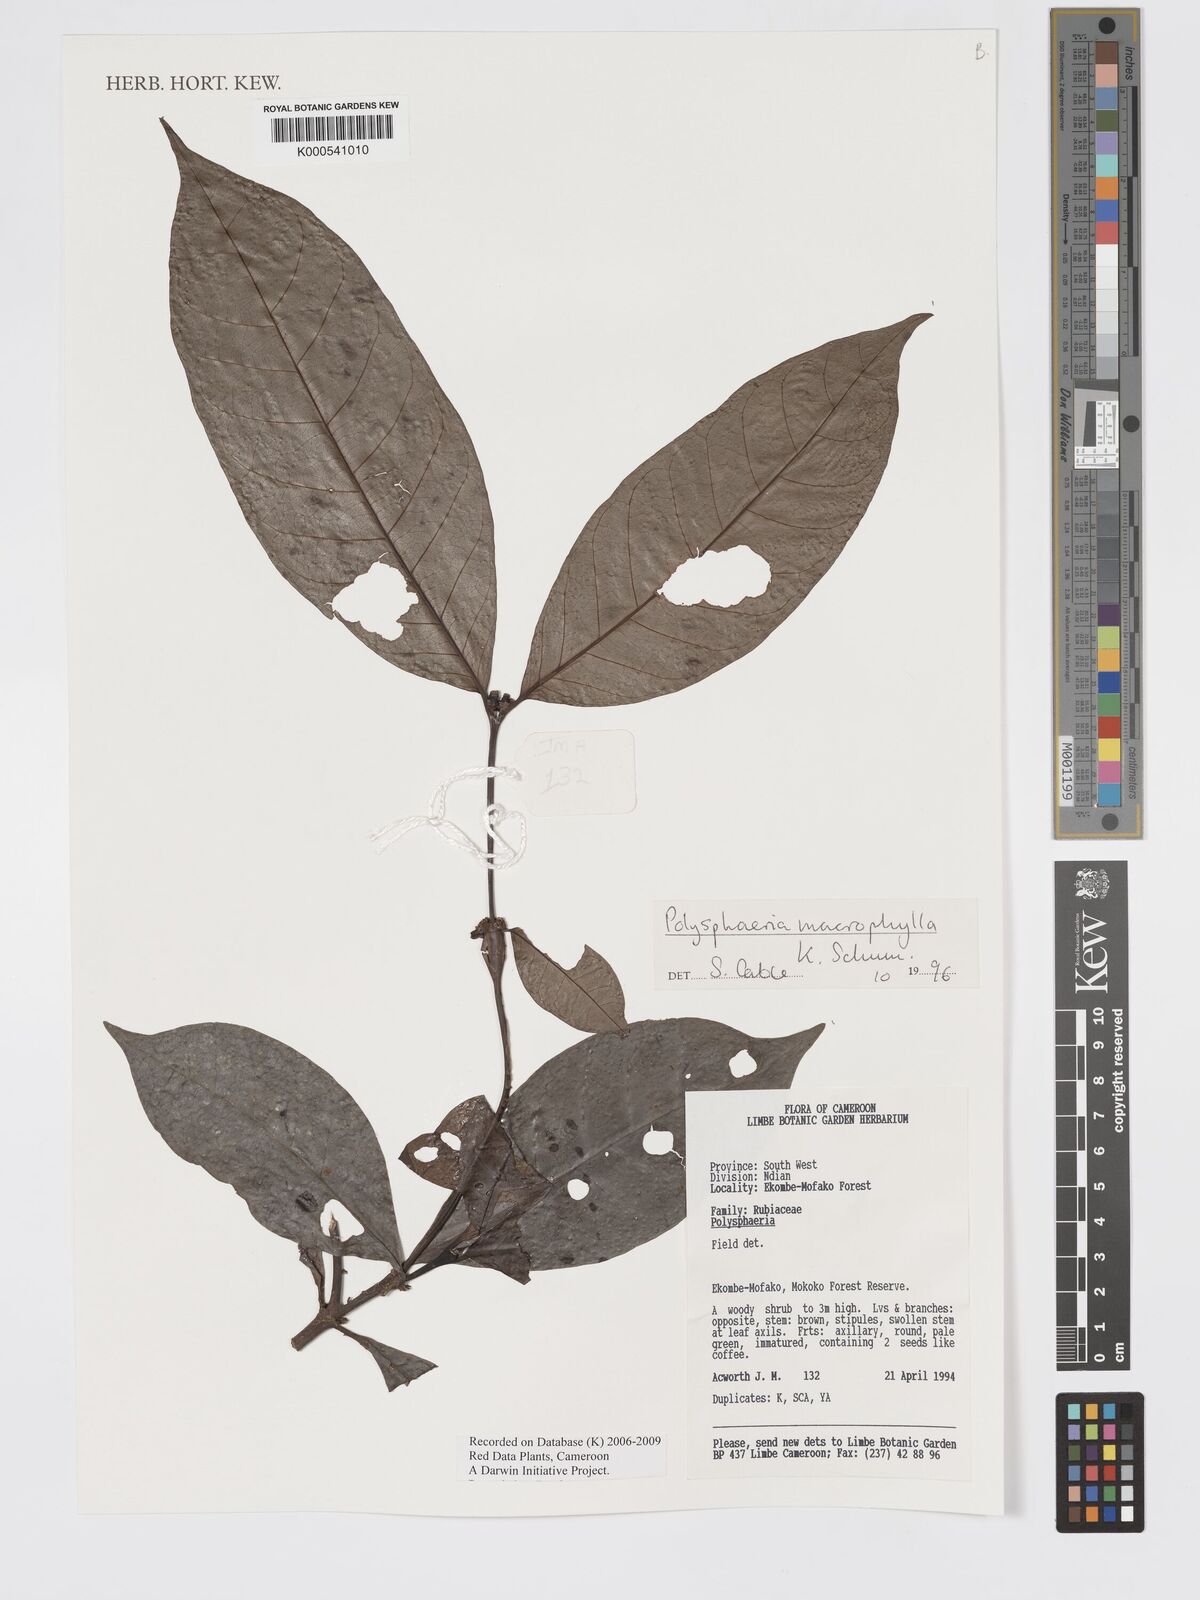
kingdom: Plantae
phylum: Tracheophyta
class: Magnoliopsida
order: Gentianales
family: Rubiaceae
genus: Polysphaeria
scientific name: Polysphaeria macrophylla
